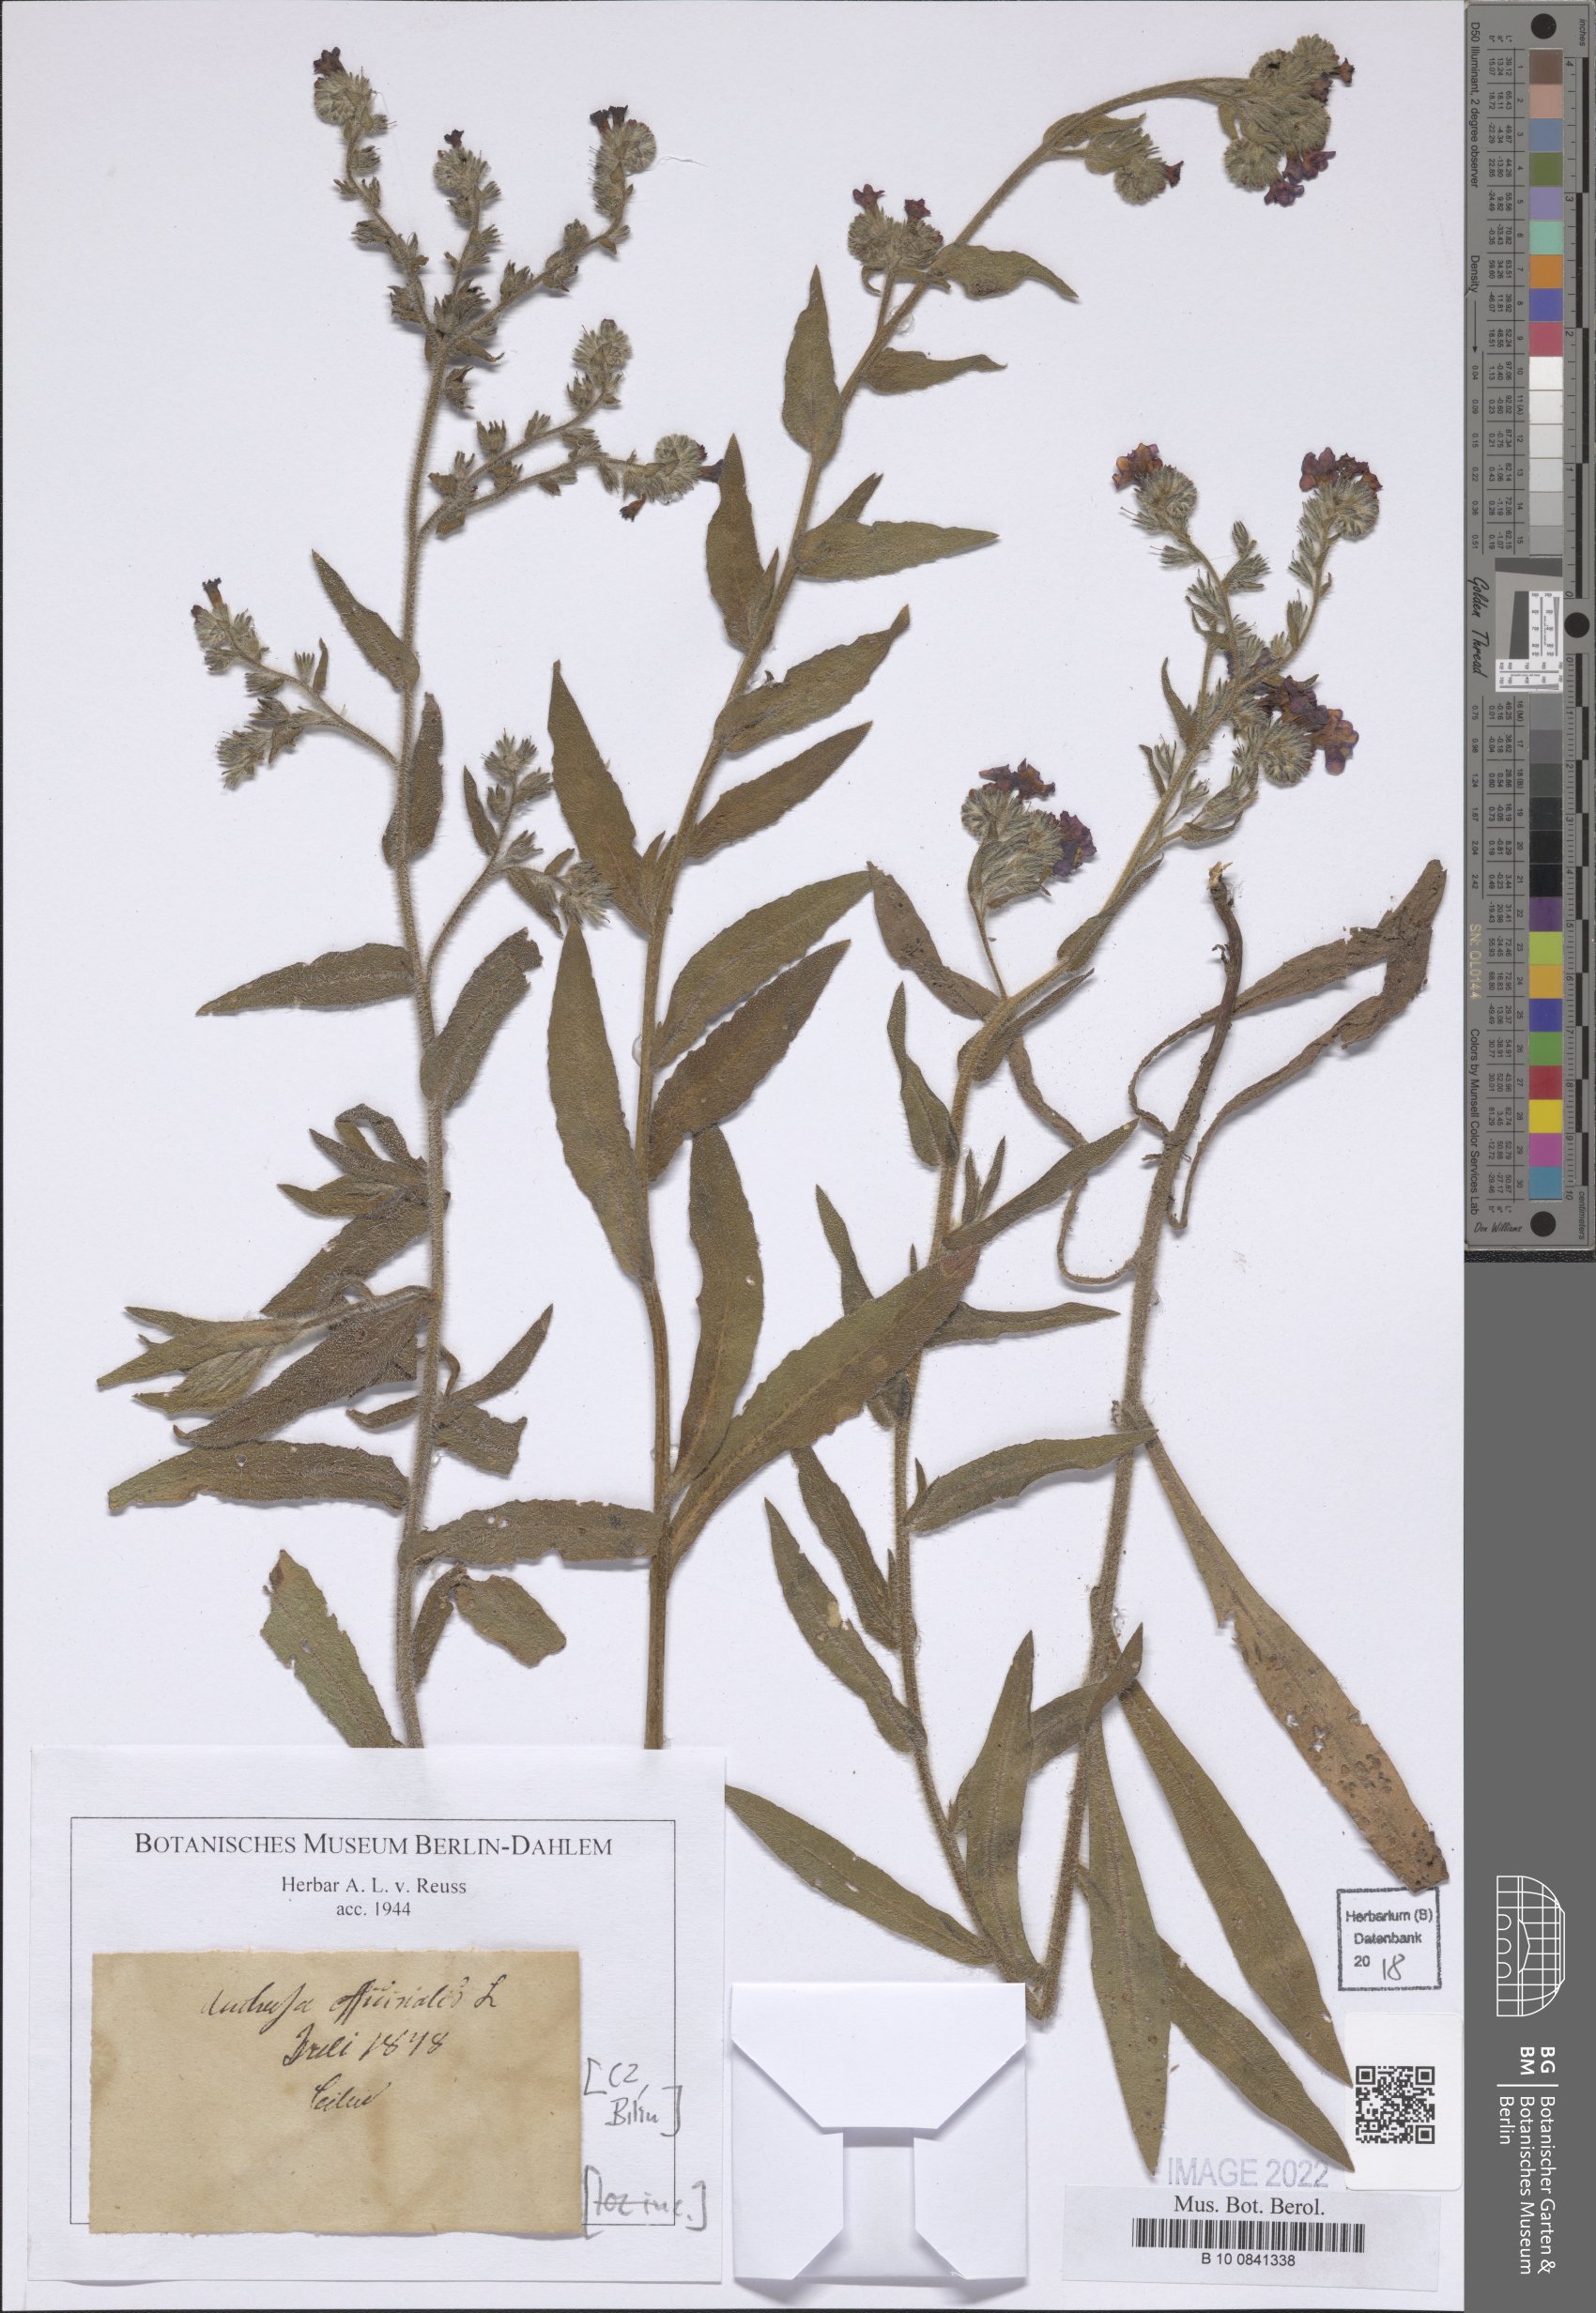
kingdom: Plantae
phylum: Tracheophyta
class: Magnoliopsida
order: Boraginales
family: Boraginaceae
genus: Anchusa
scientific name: Anchusa officinalis
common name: Alkanet
